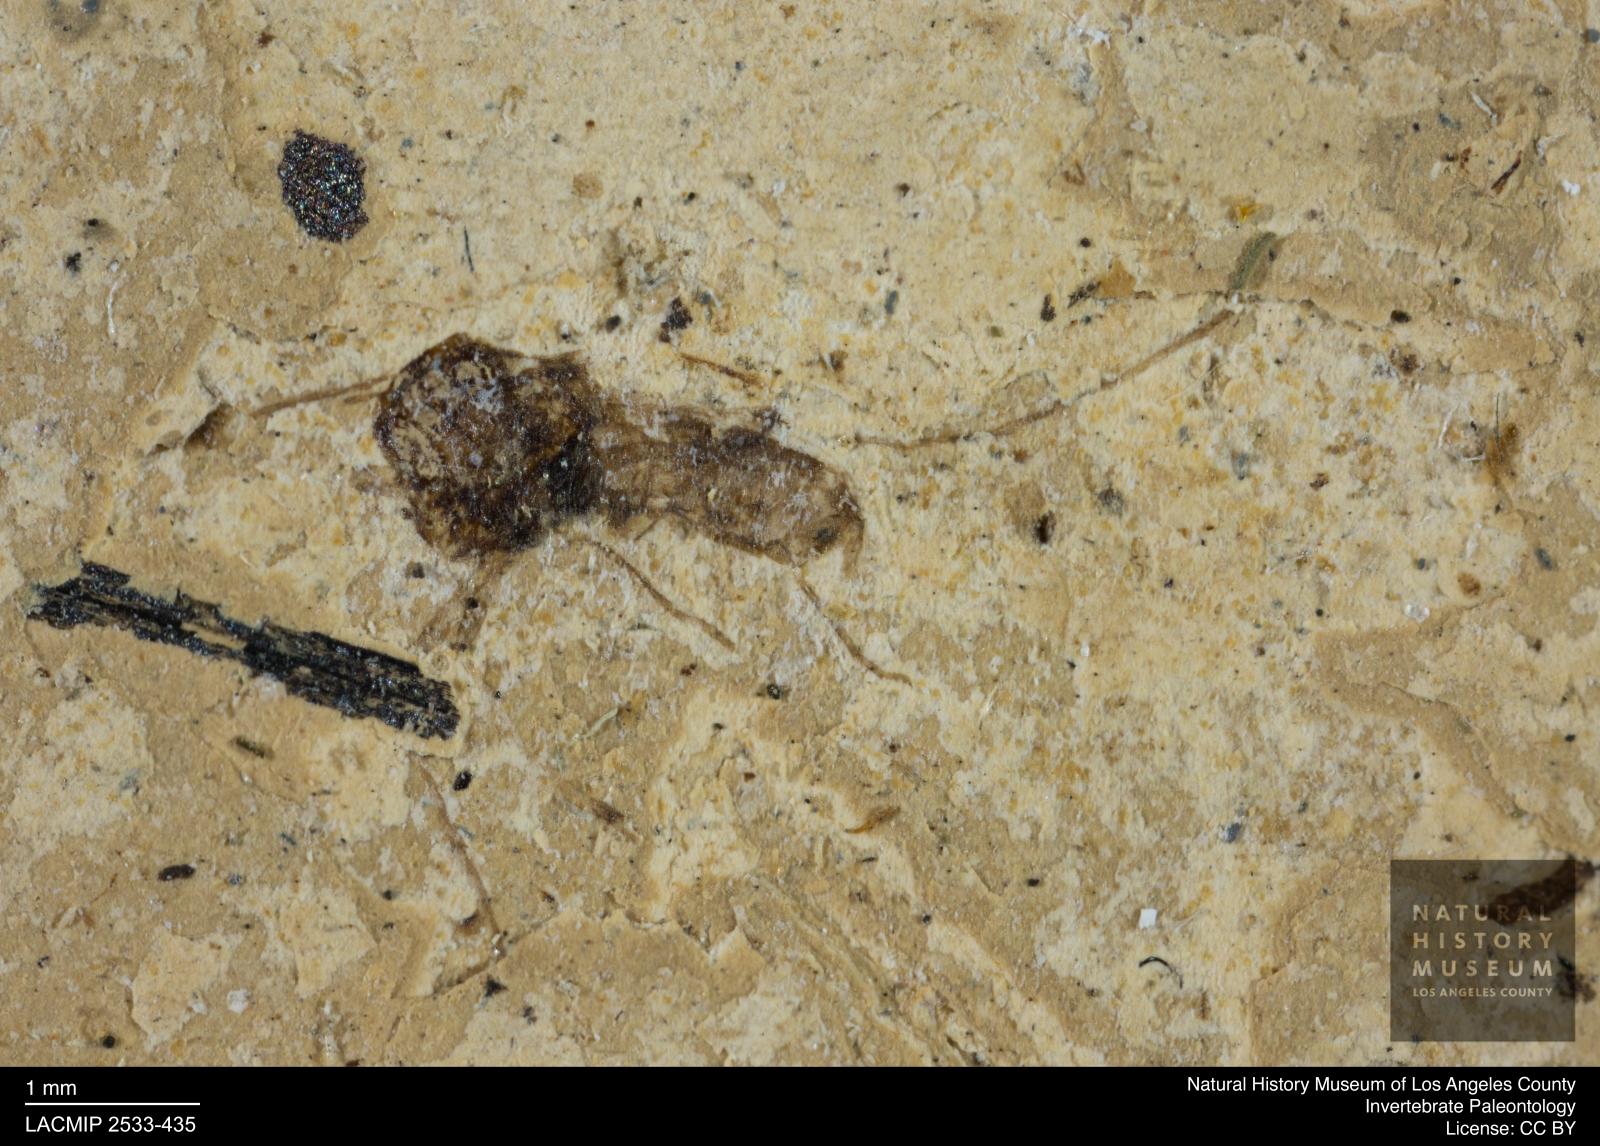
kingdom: Animalia
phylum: Arthropoda
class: Insecta
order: Diptera
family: Chironomidae
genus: Tanypus
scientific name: Tanypus thienemanni
